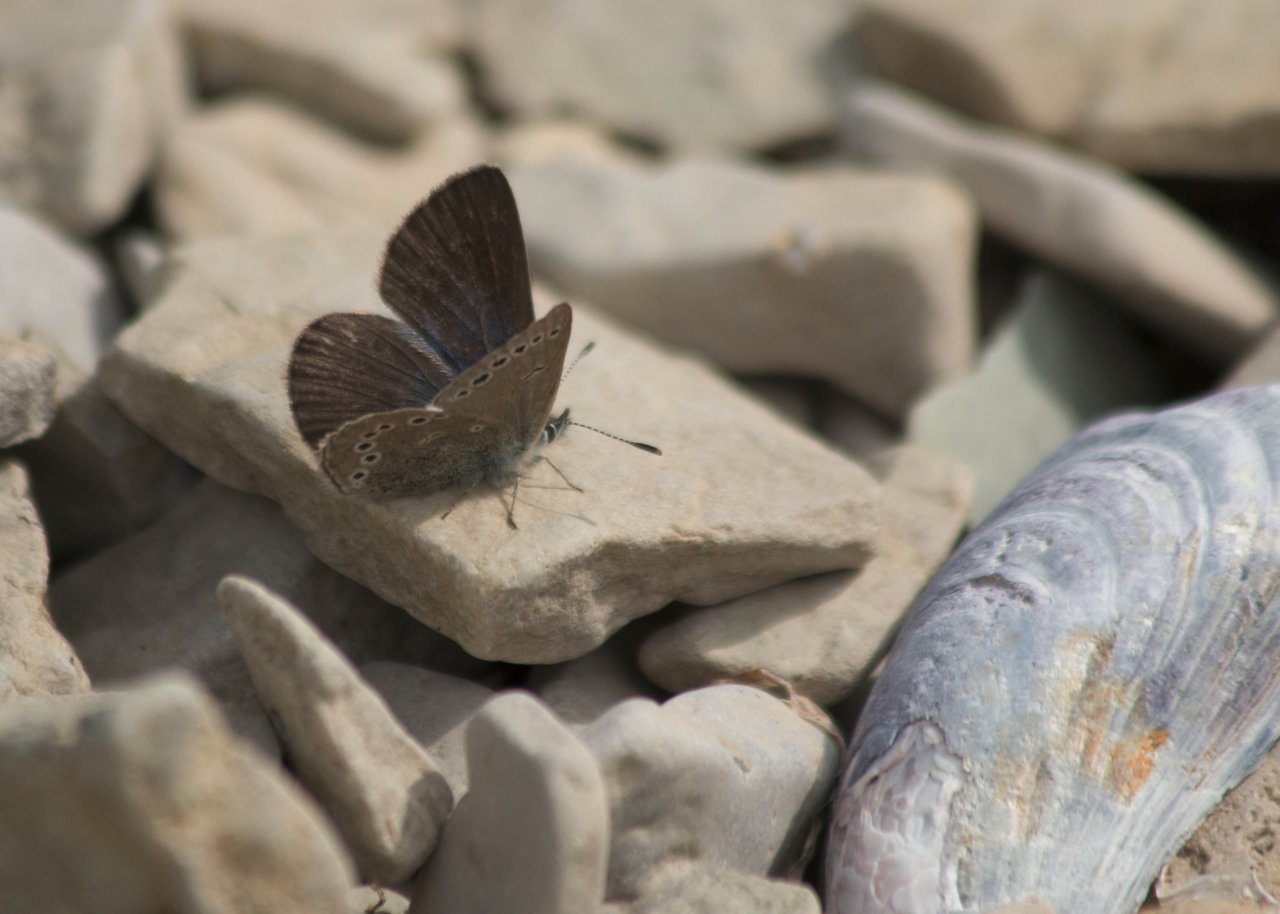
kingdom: Animalia
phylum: Arthropoda
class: Insecta
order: Lepidoptera
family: Lycaenidae
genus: Glaucopsyche
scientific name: Glaucopsyche lygdamus
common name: Silvery Blue
